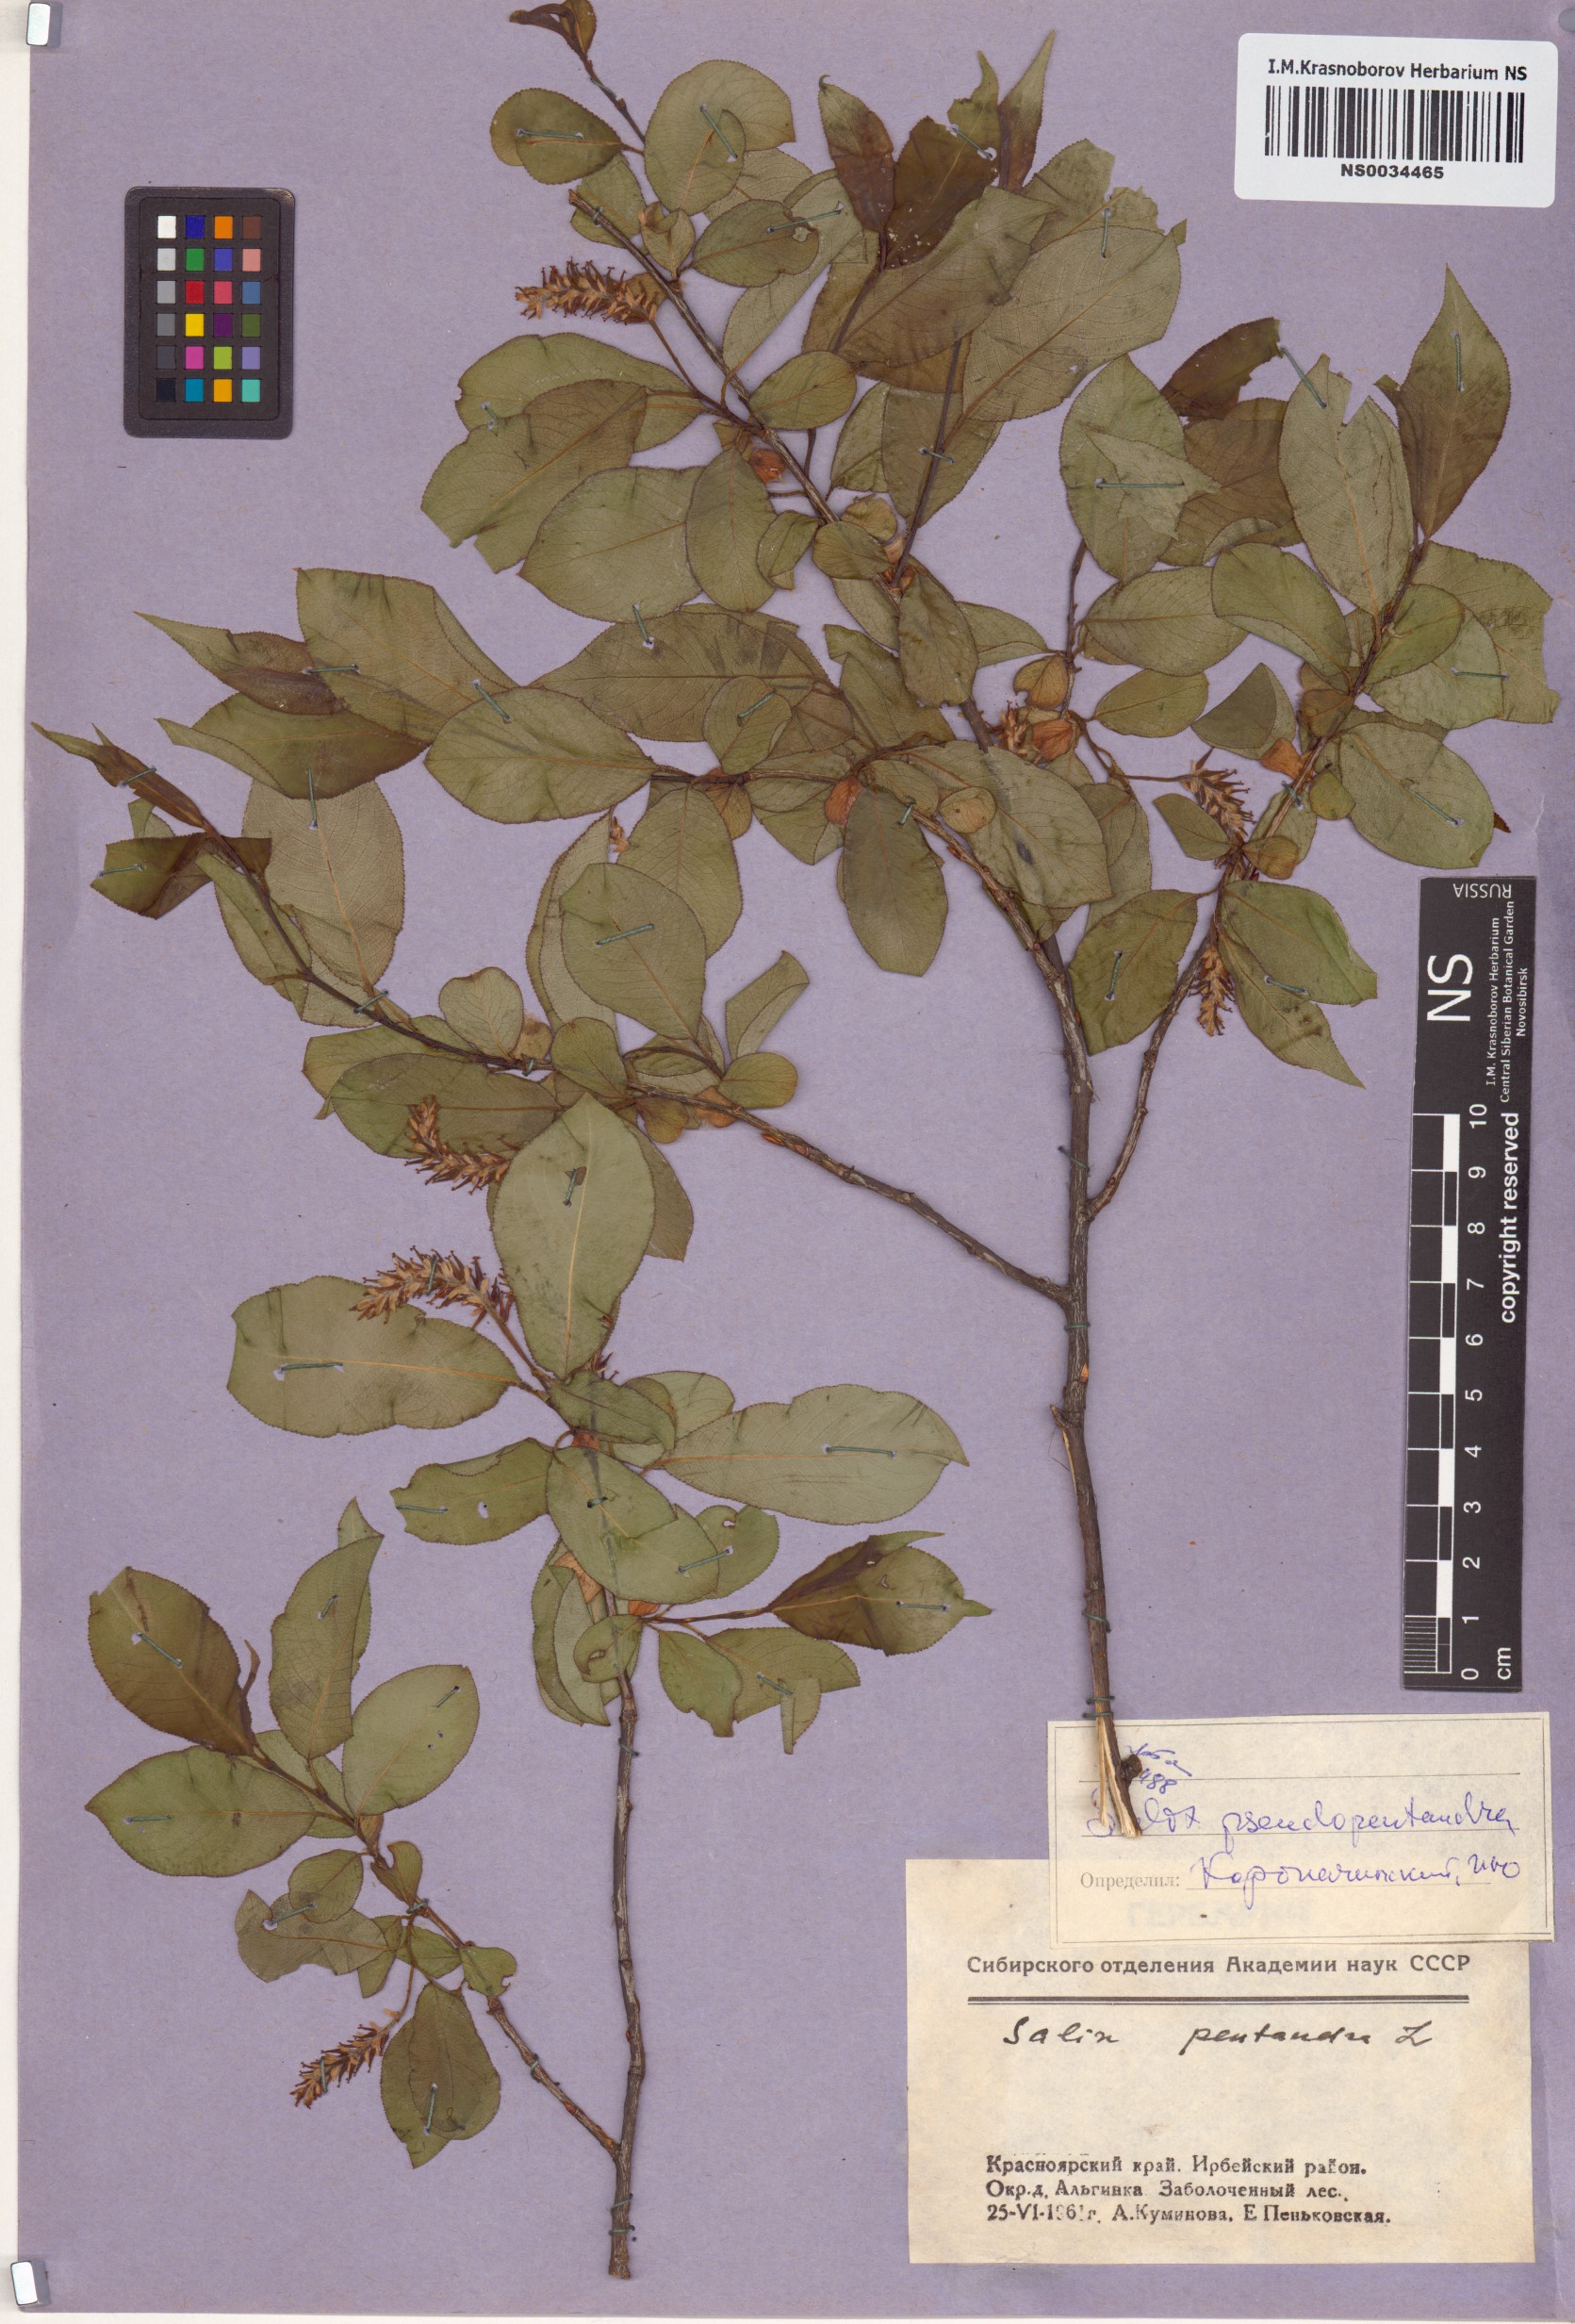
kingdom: Plantae
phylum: Tracheophyta
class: Magnoliopsida
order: Malpighiales
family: Salicaceae
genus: Salix
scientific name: Salix pseudopentandra
